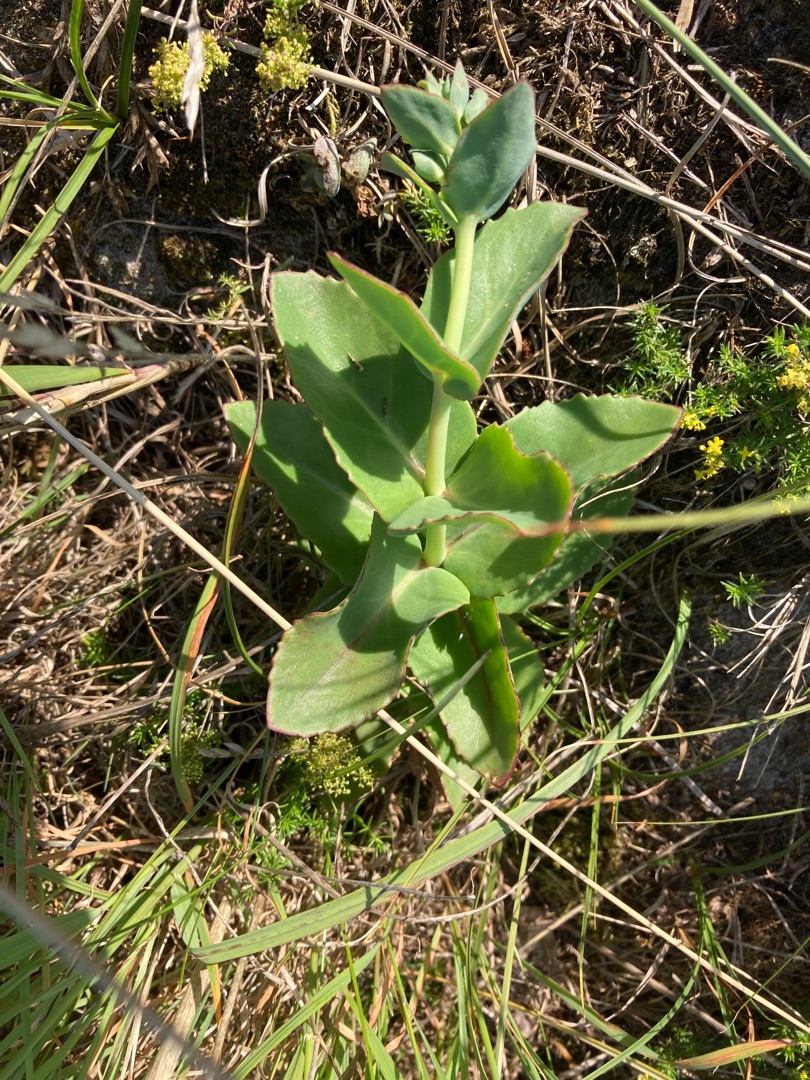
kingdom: Plantae
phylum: Tracheophyta
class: Magnoliopsida
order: Saxifragales
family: Crassulaceae
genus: Hylotelephium
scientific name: Hylotelephium maximum
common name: Almindelig sankthansurt
